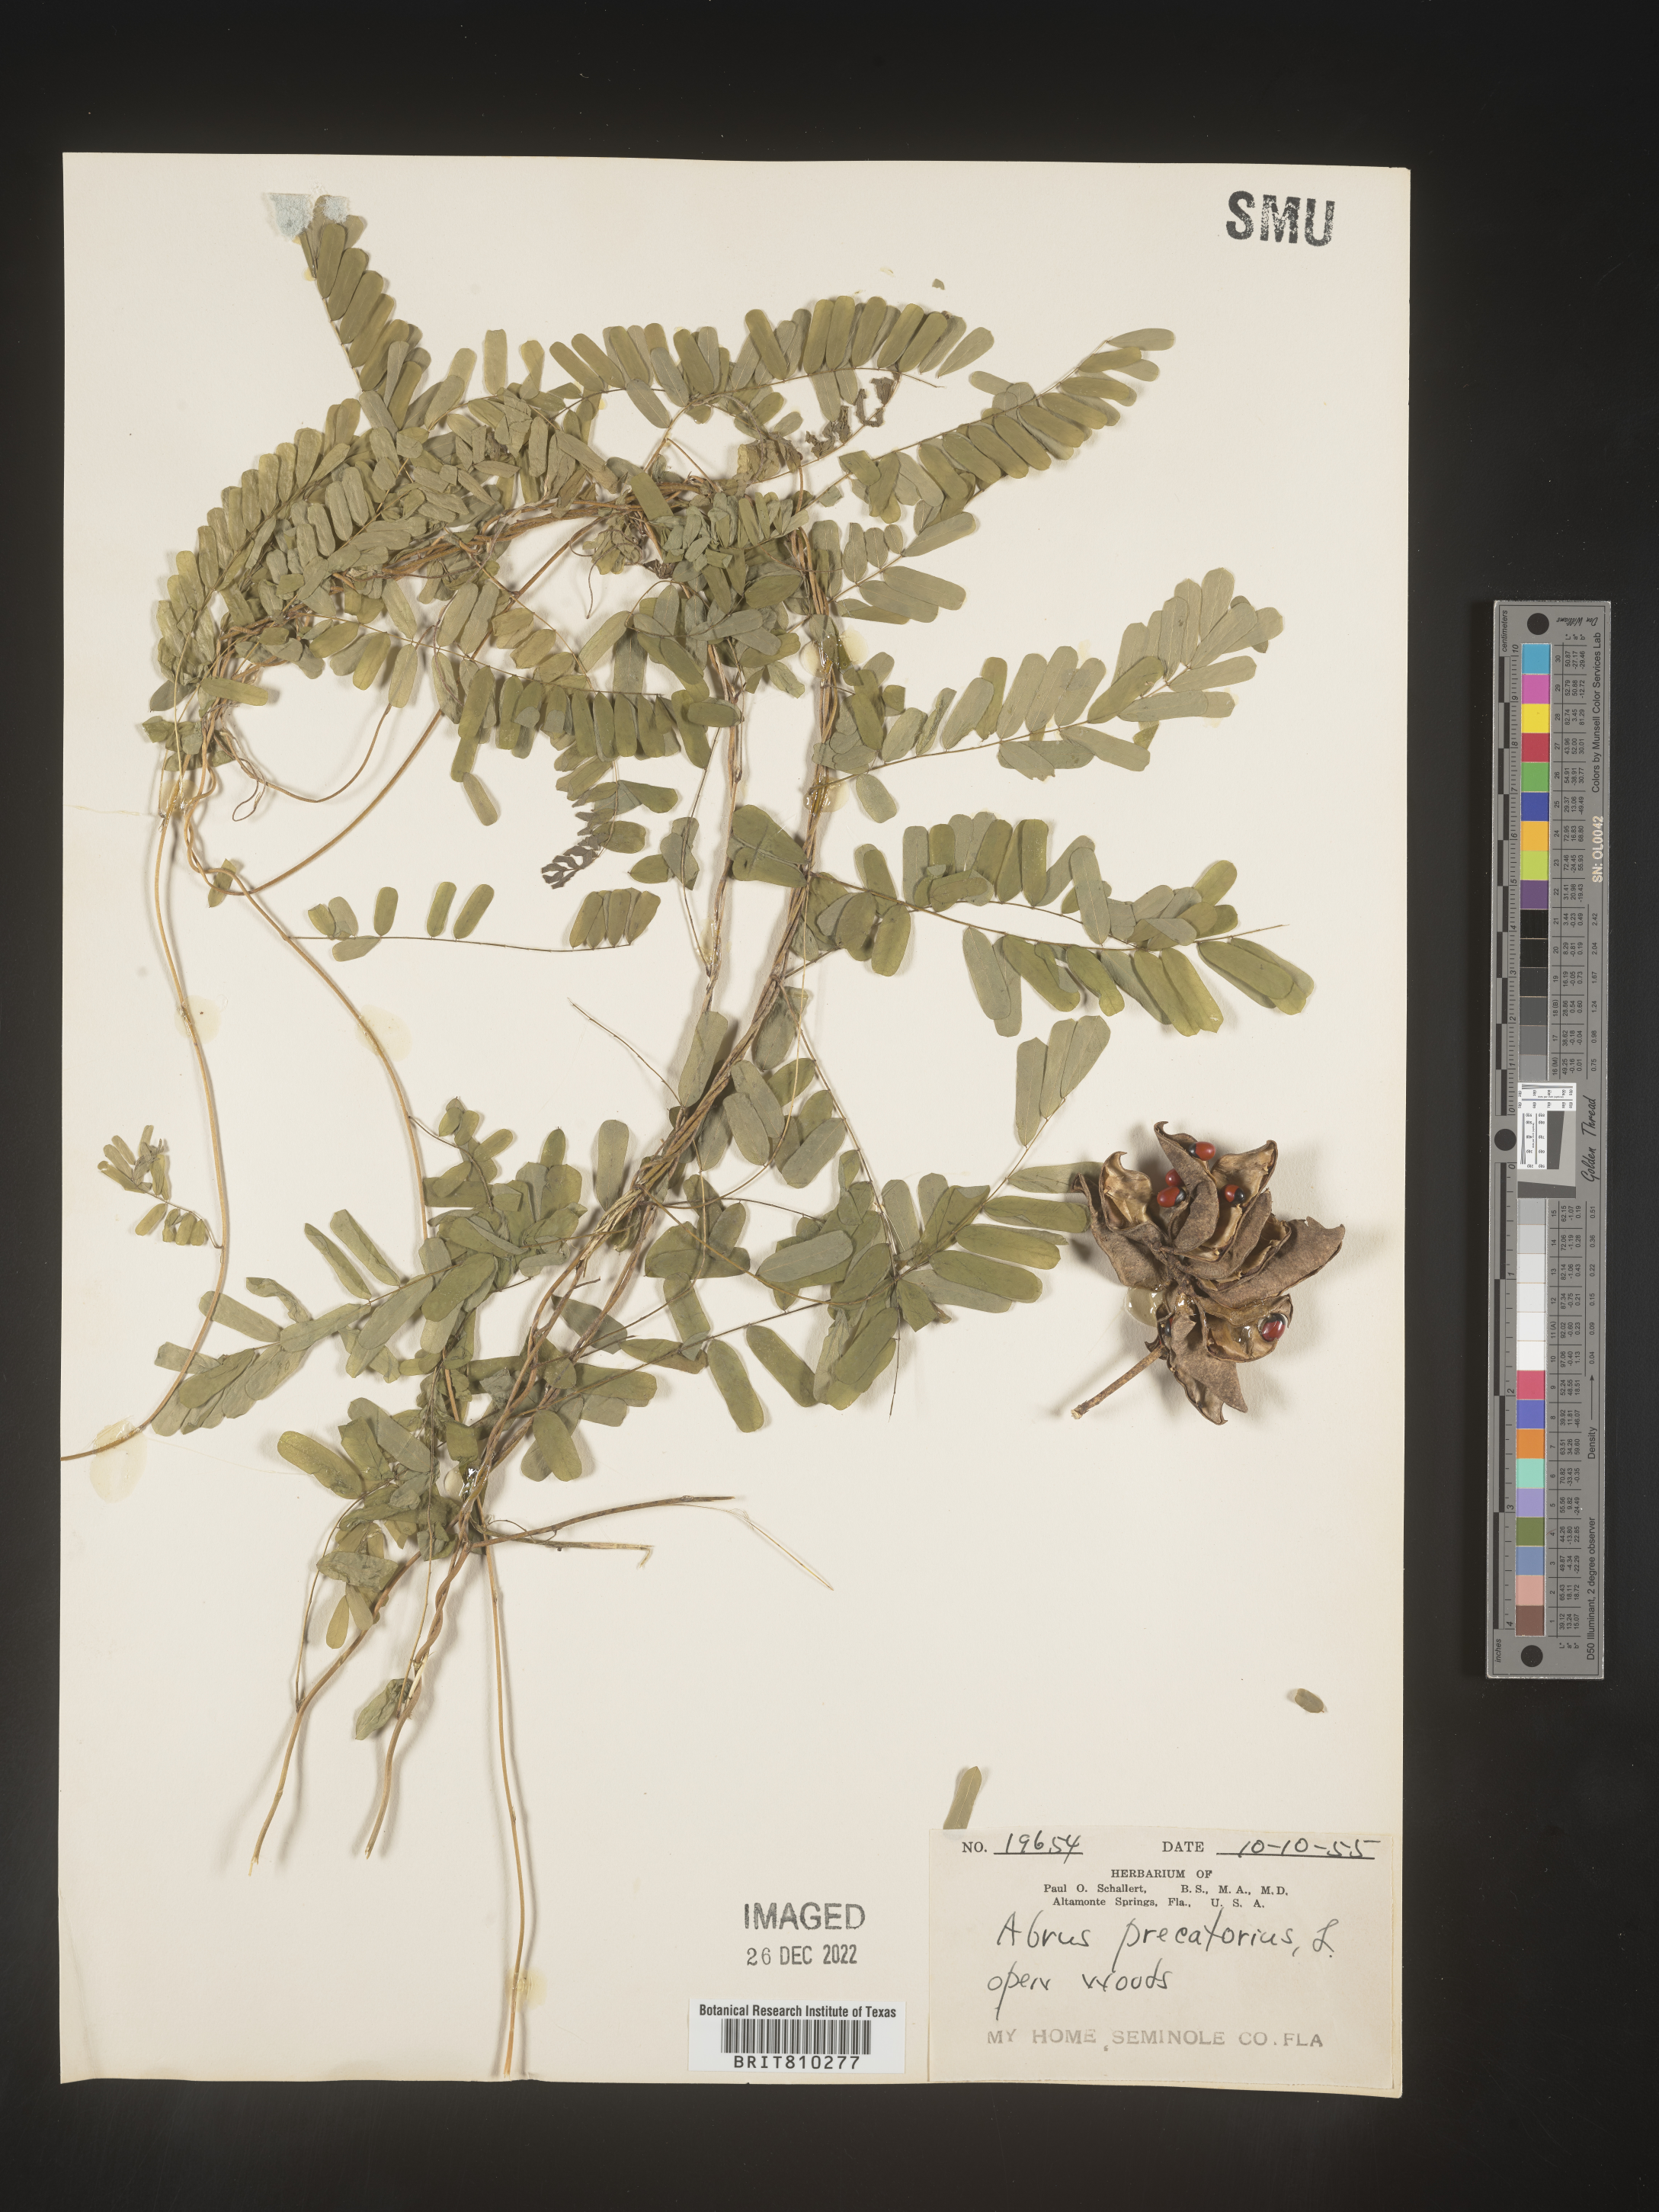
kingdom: Plantae
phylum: Tracheophyta
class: Magnoliopsida
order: Fabales
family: Fabaceae
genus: Abrus
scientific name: Abrus
